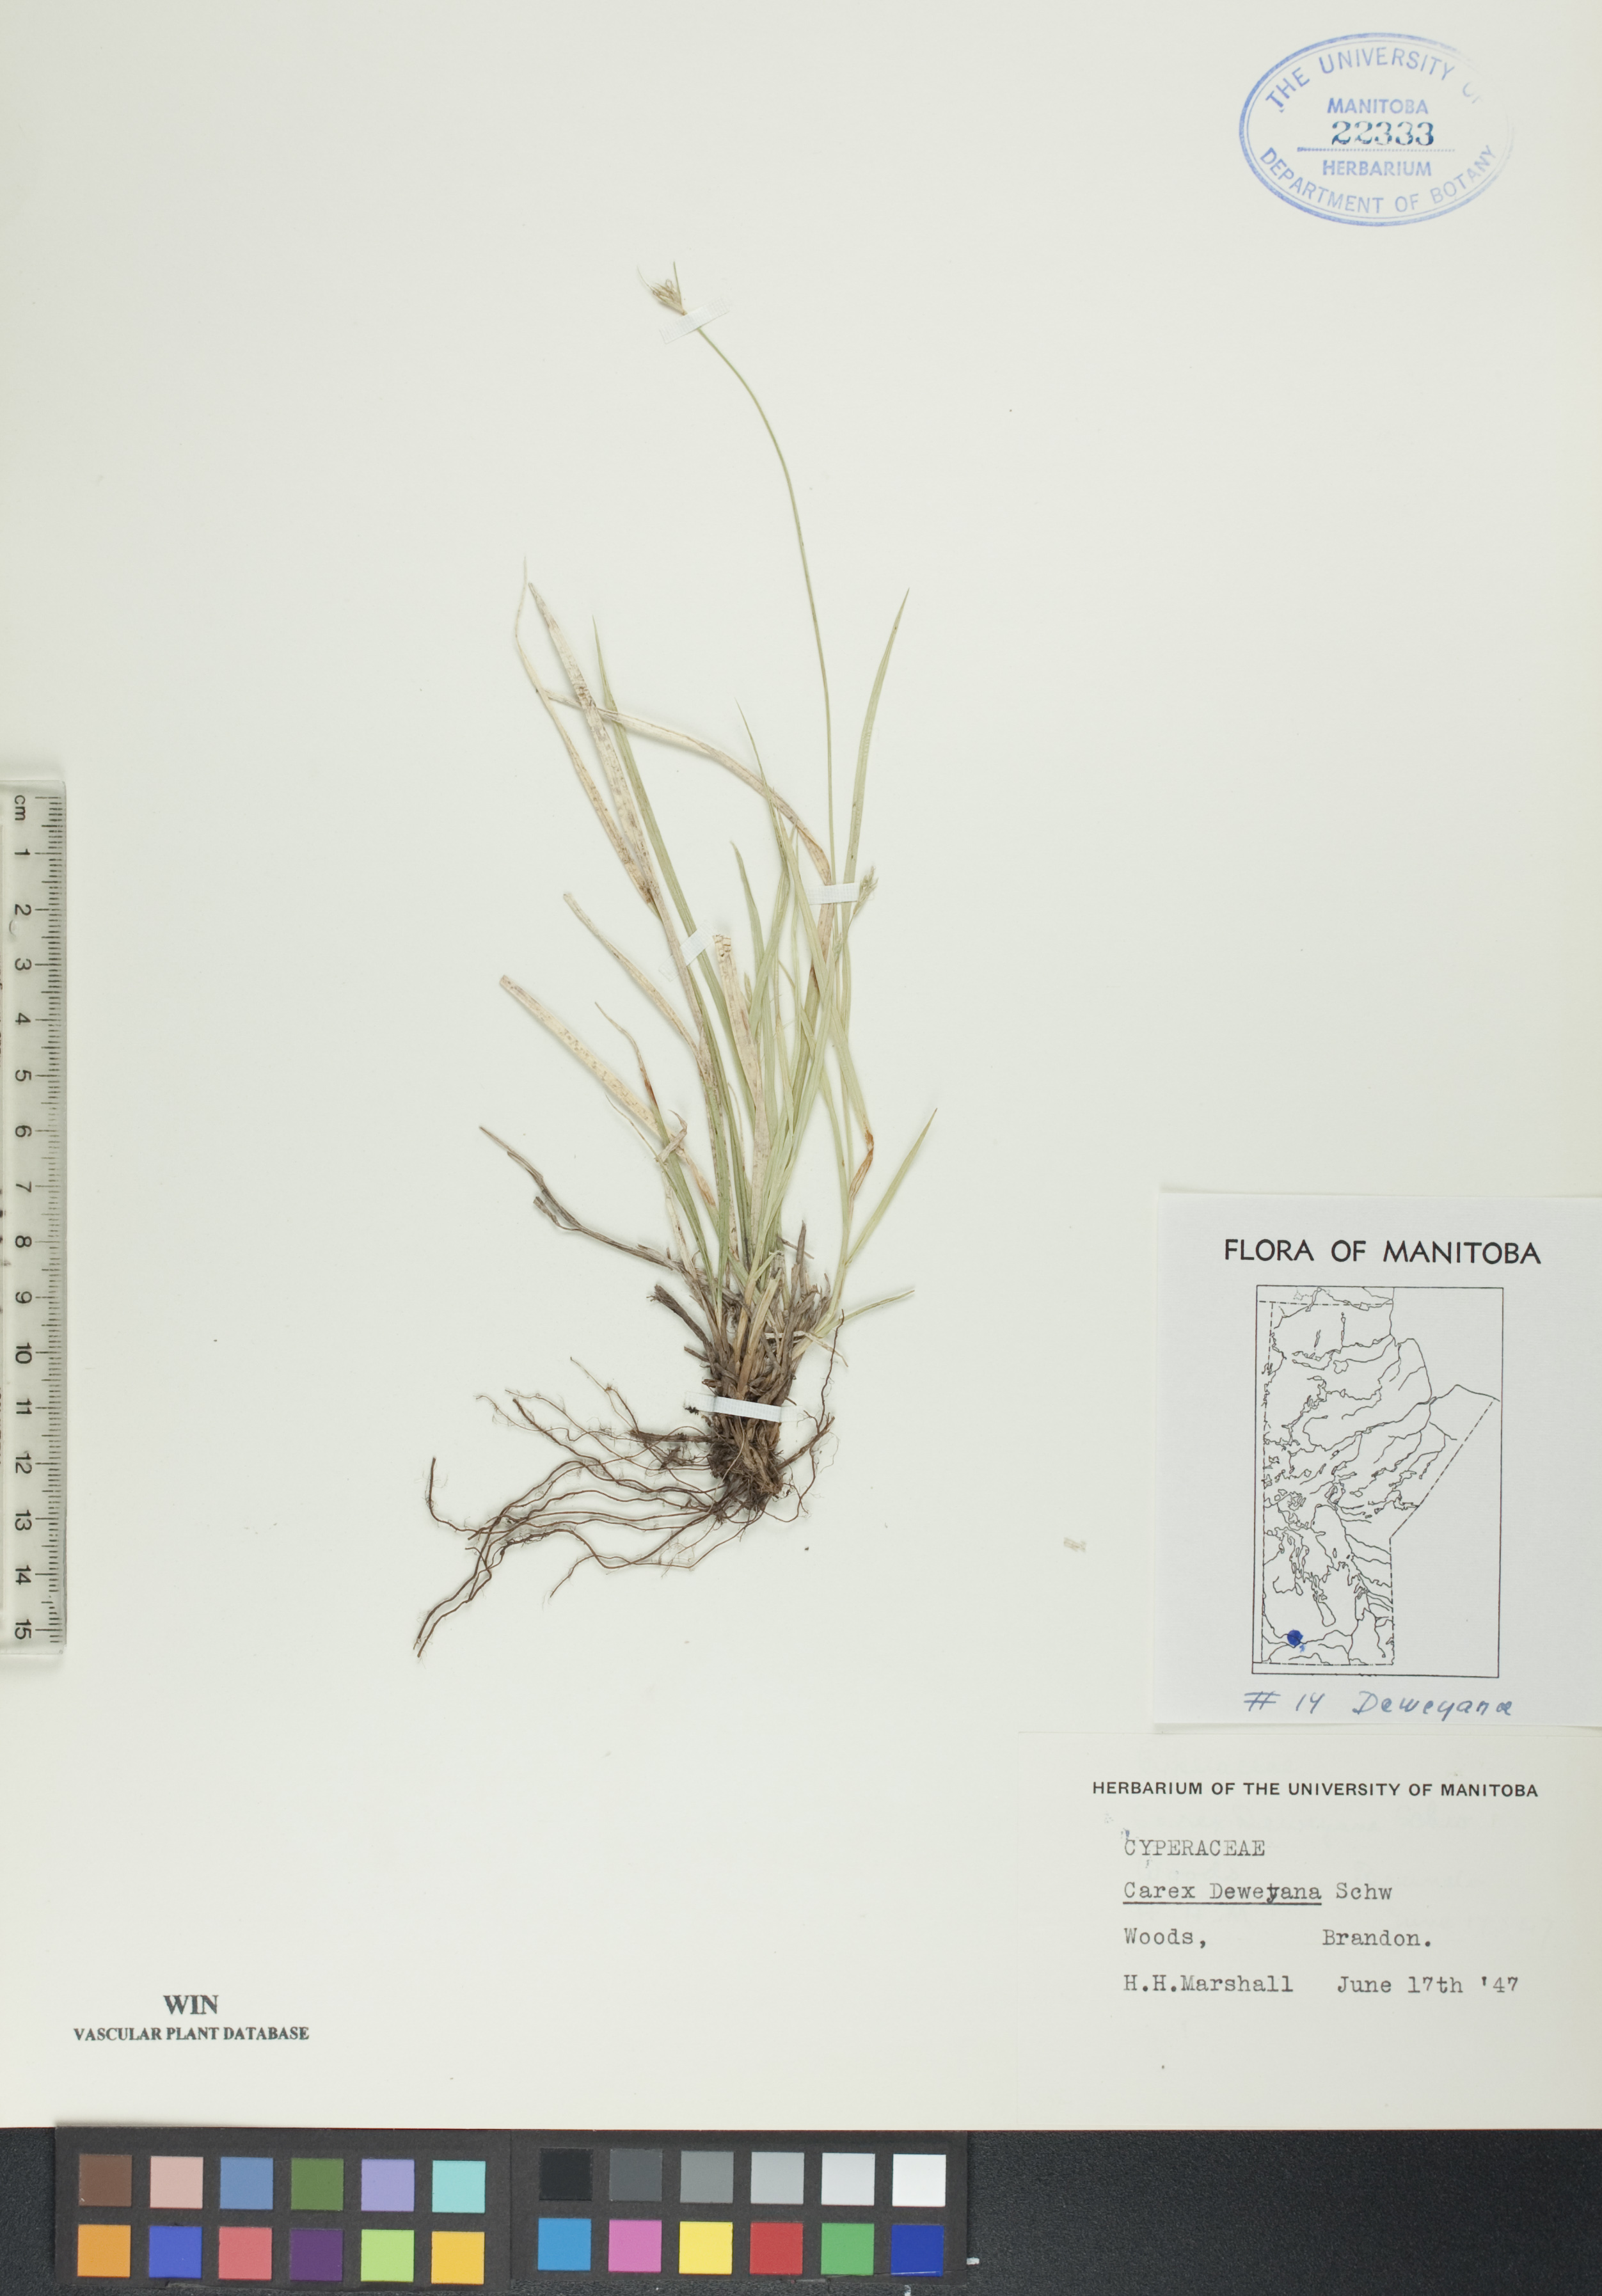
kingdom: Plantae
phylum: Tracheophyta
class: Liliopsida
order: Poales
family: Cyperaceae
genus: Carex
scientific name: Carex deweyana
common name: Dewey's sedge
